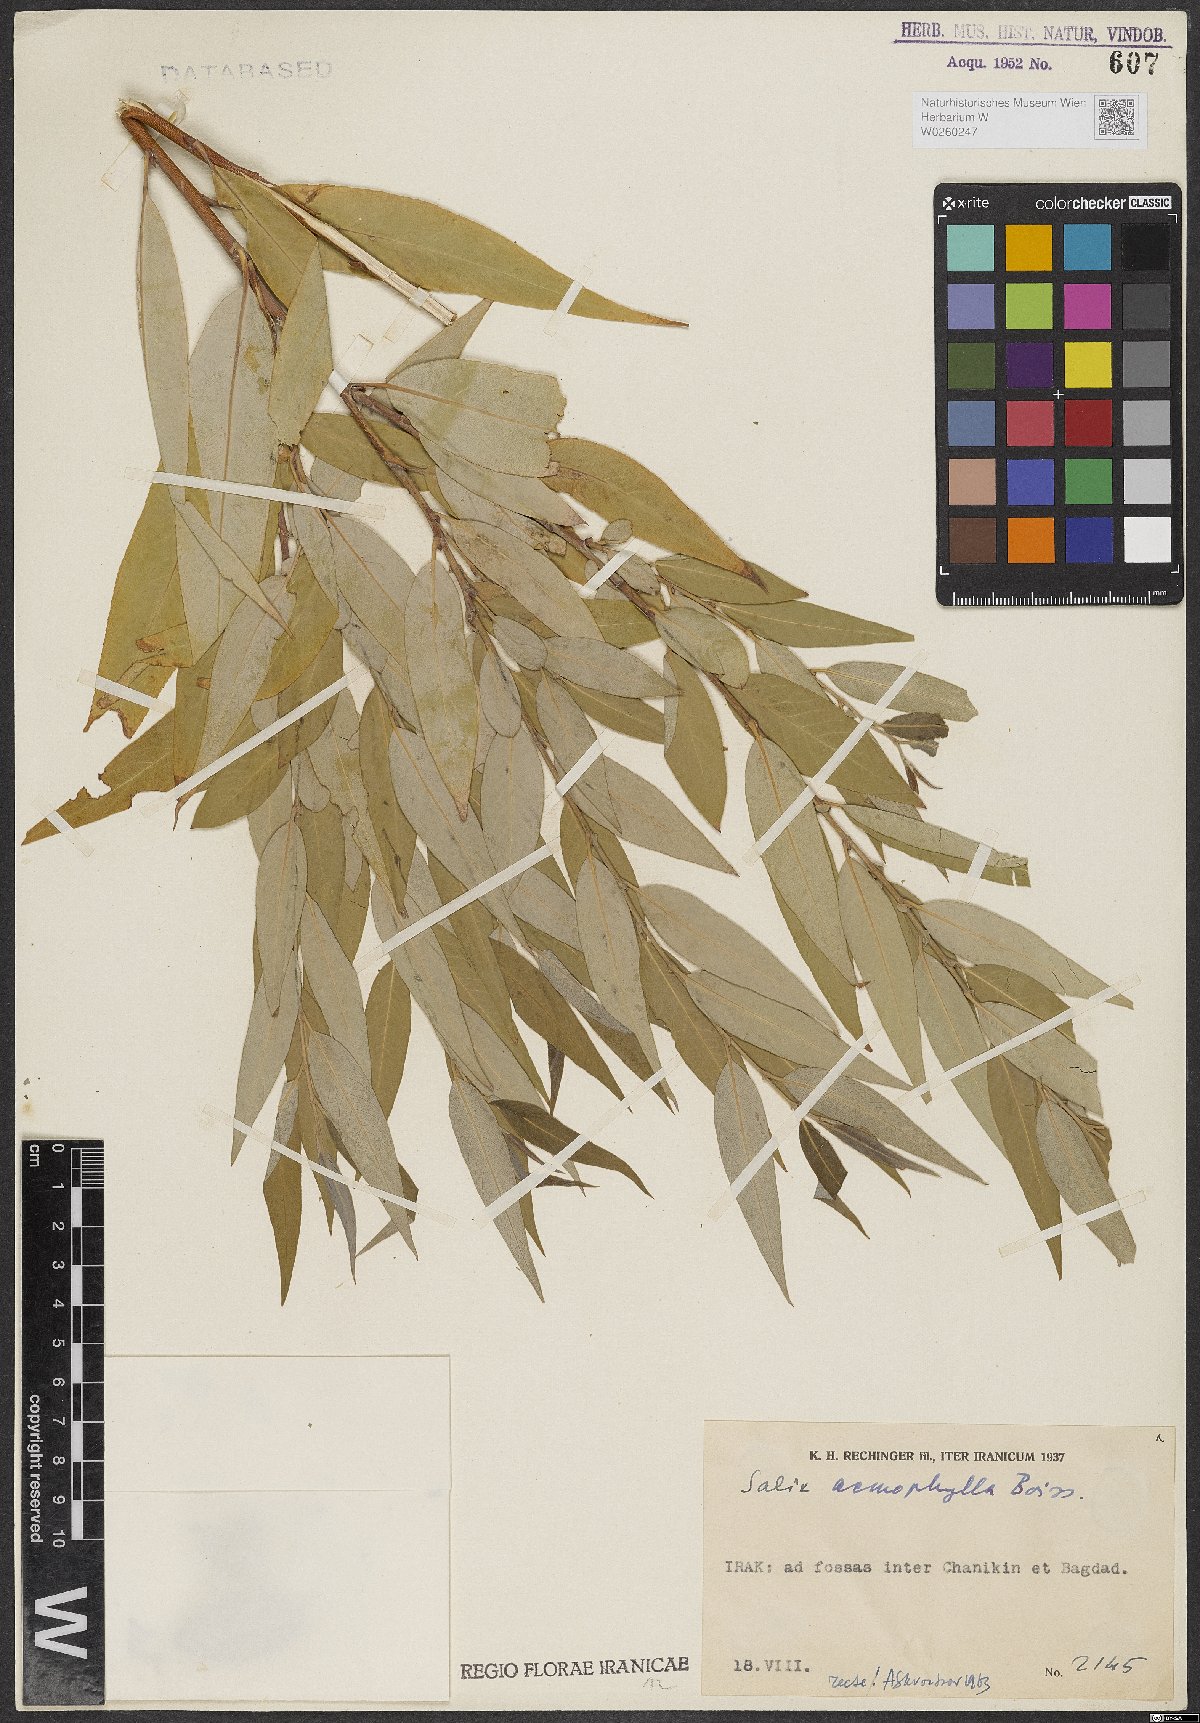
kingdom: Plantae
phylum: Tracheophyta
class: Magnoliopsida
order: Malpighiales
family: Salicaceae
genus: Salix
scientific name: Salix acmophylla
